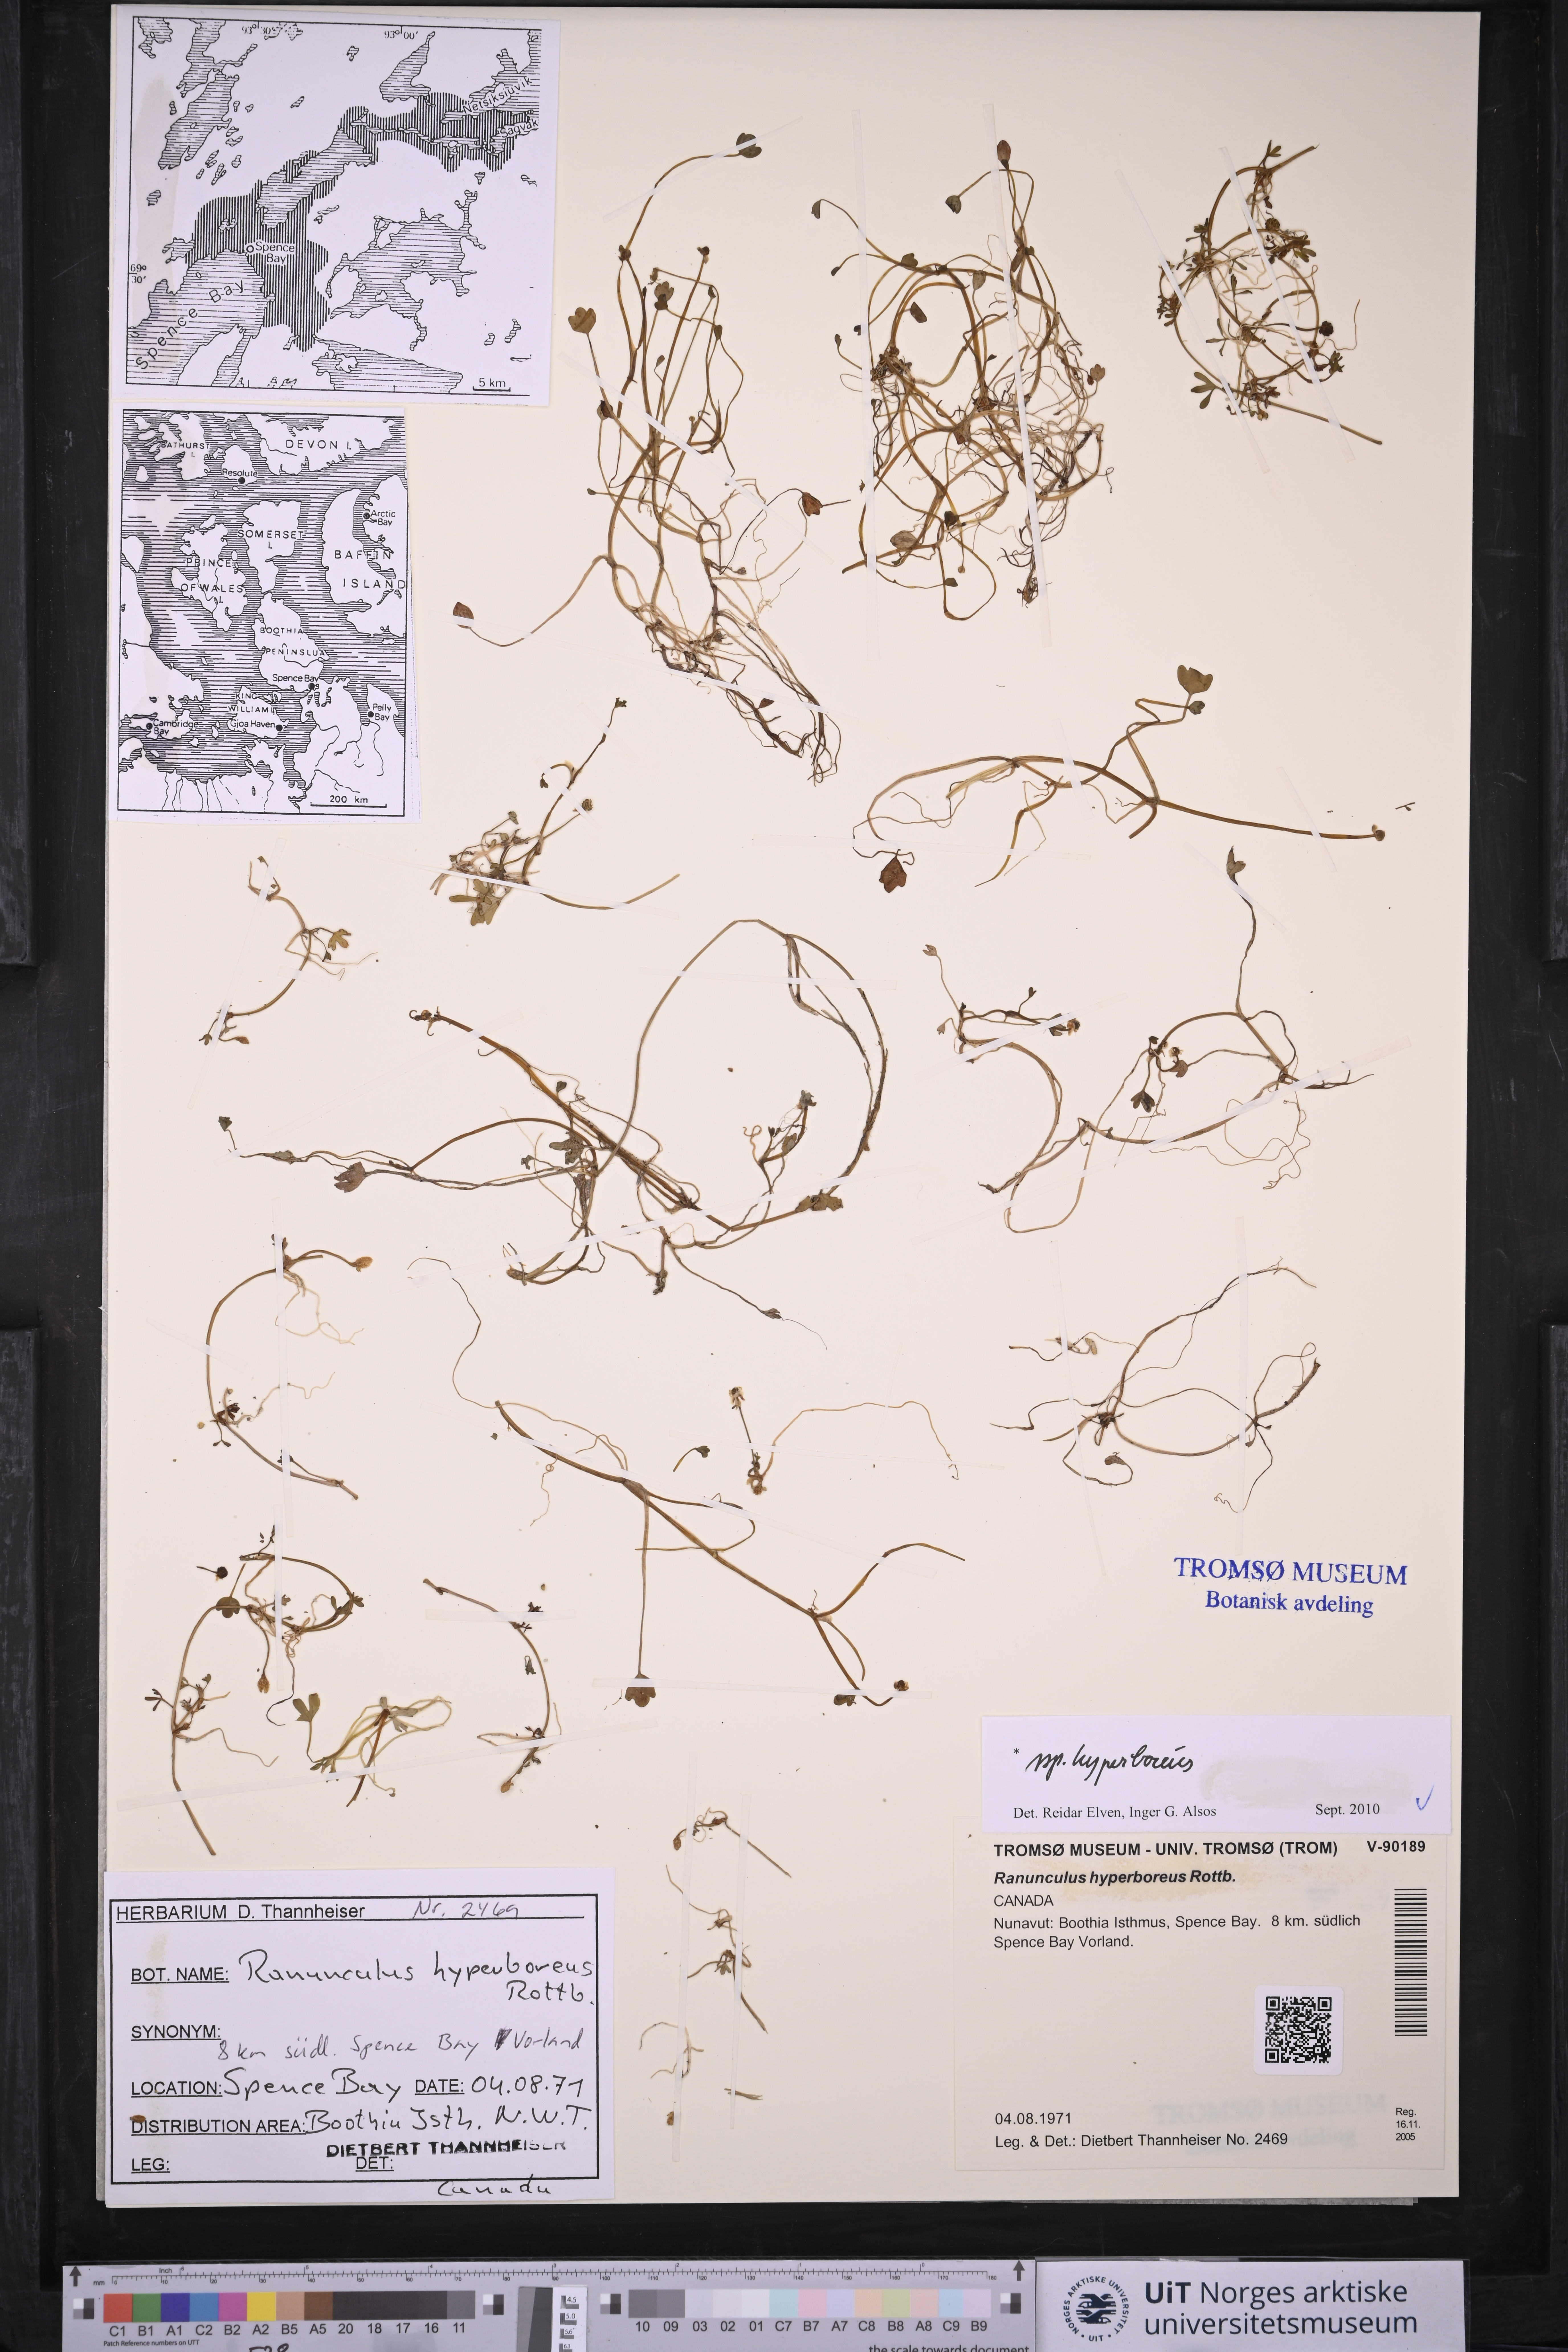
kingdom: Plantae
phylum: Tracheophyta
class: Magnoliopsida
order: Ranunculales
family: Ranunculaceae
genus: Ranunculus
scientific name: Ranunculus hyperboreus
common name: Arctic buttercup
